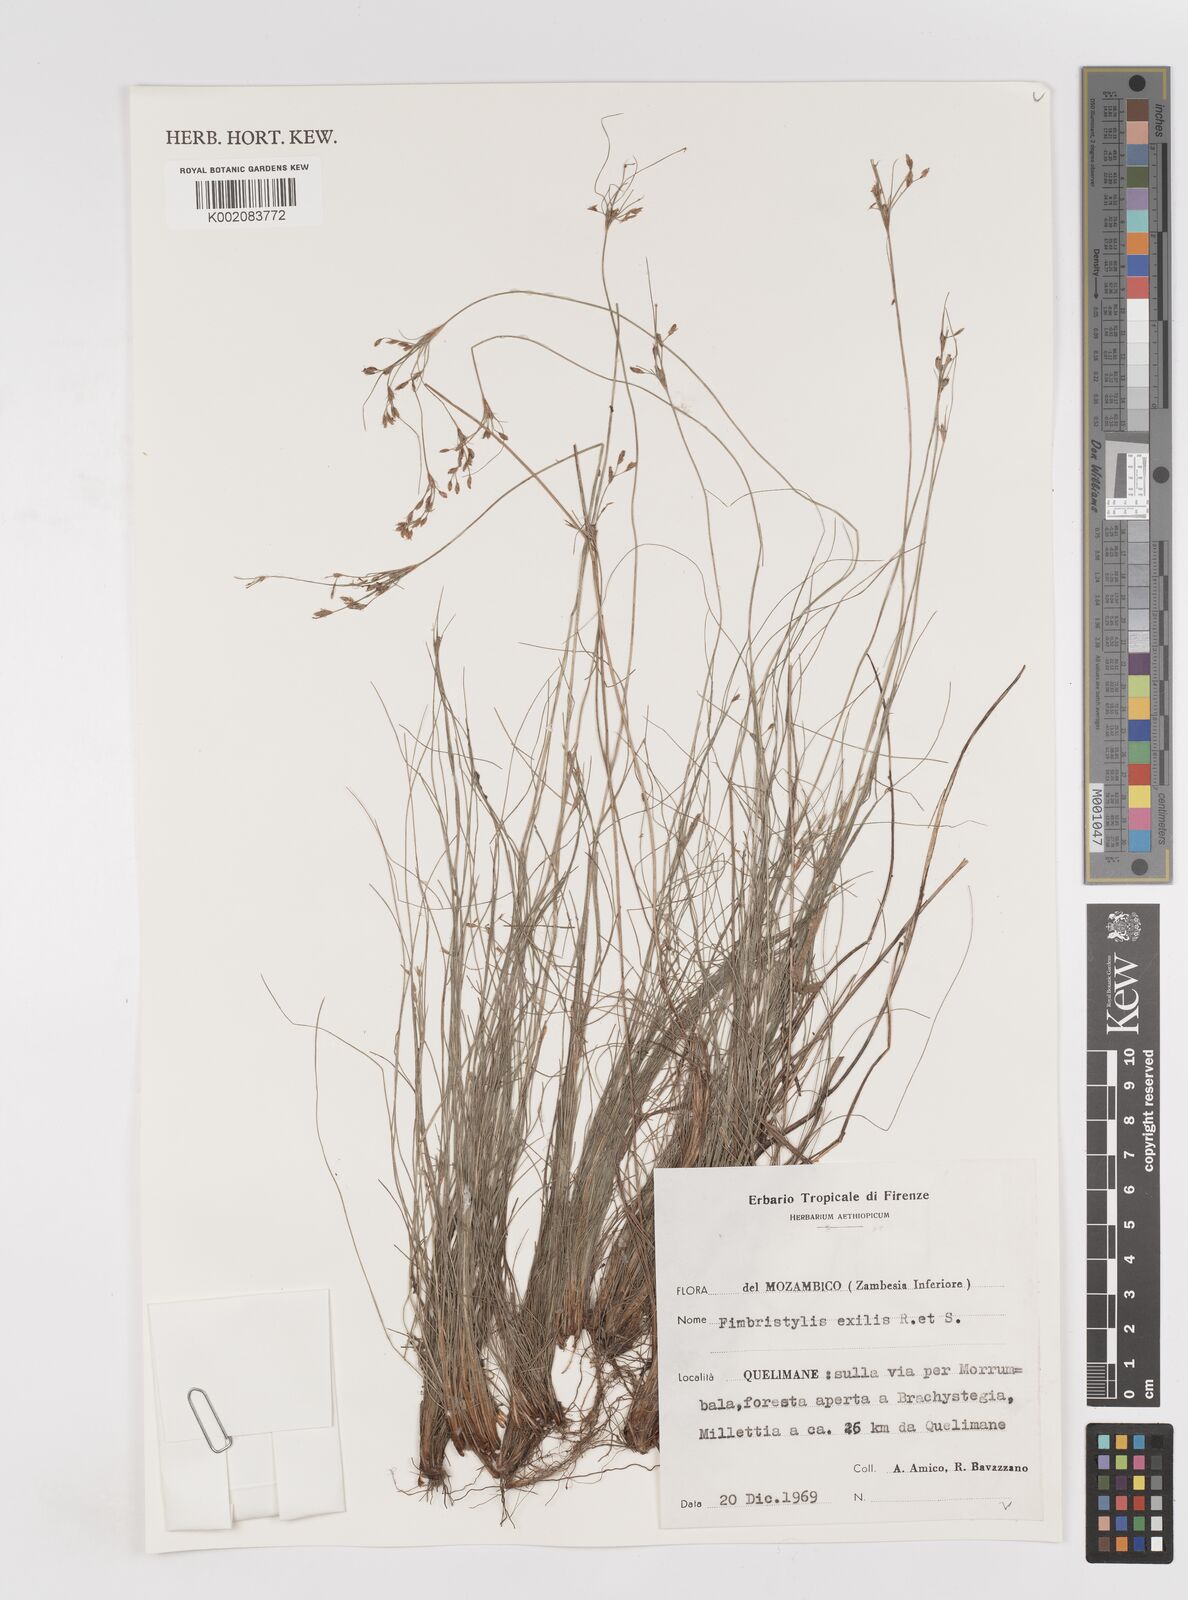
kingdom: Plantae
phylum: Tracheophyta
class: Liliopsida
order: Poales
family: Cyperaceae
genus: Bulbostylis
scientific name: Bulbostylis hispidula
